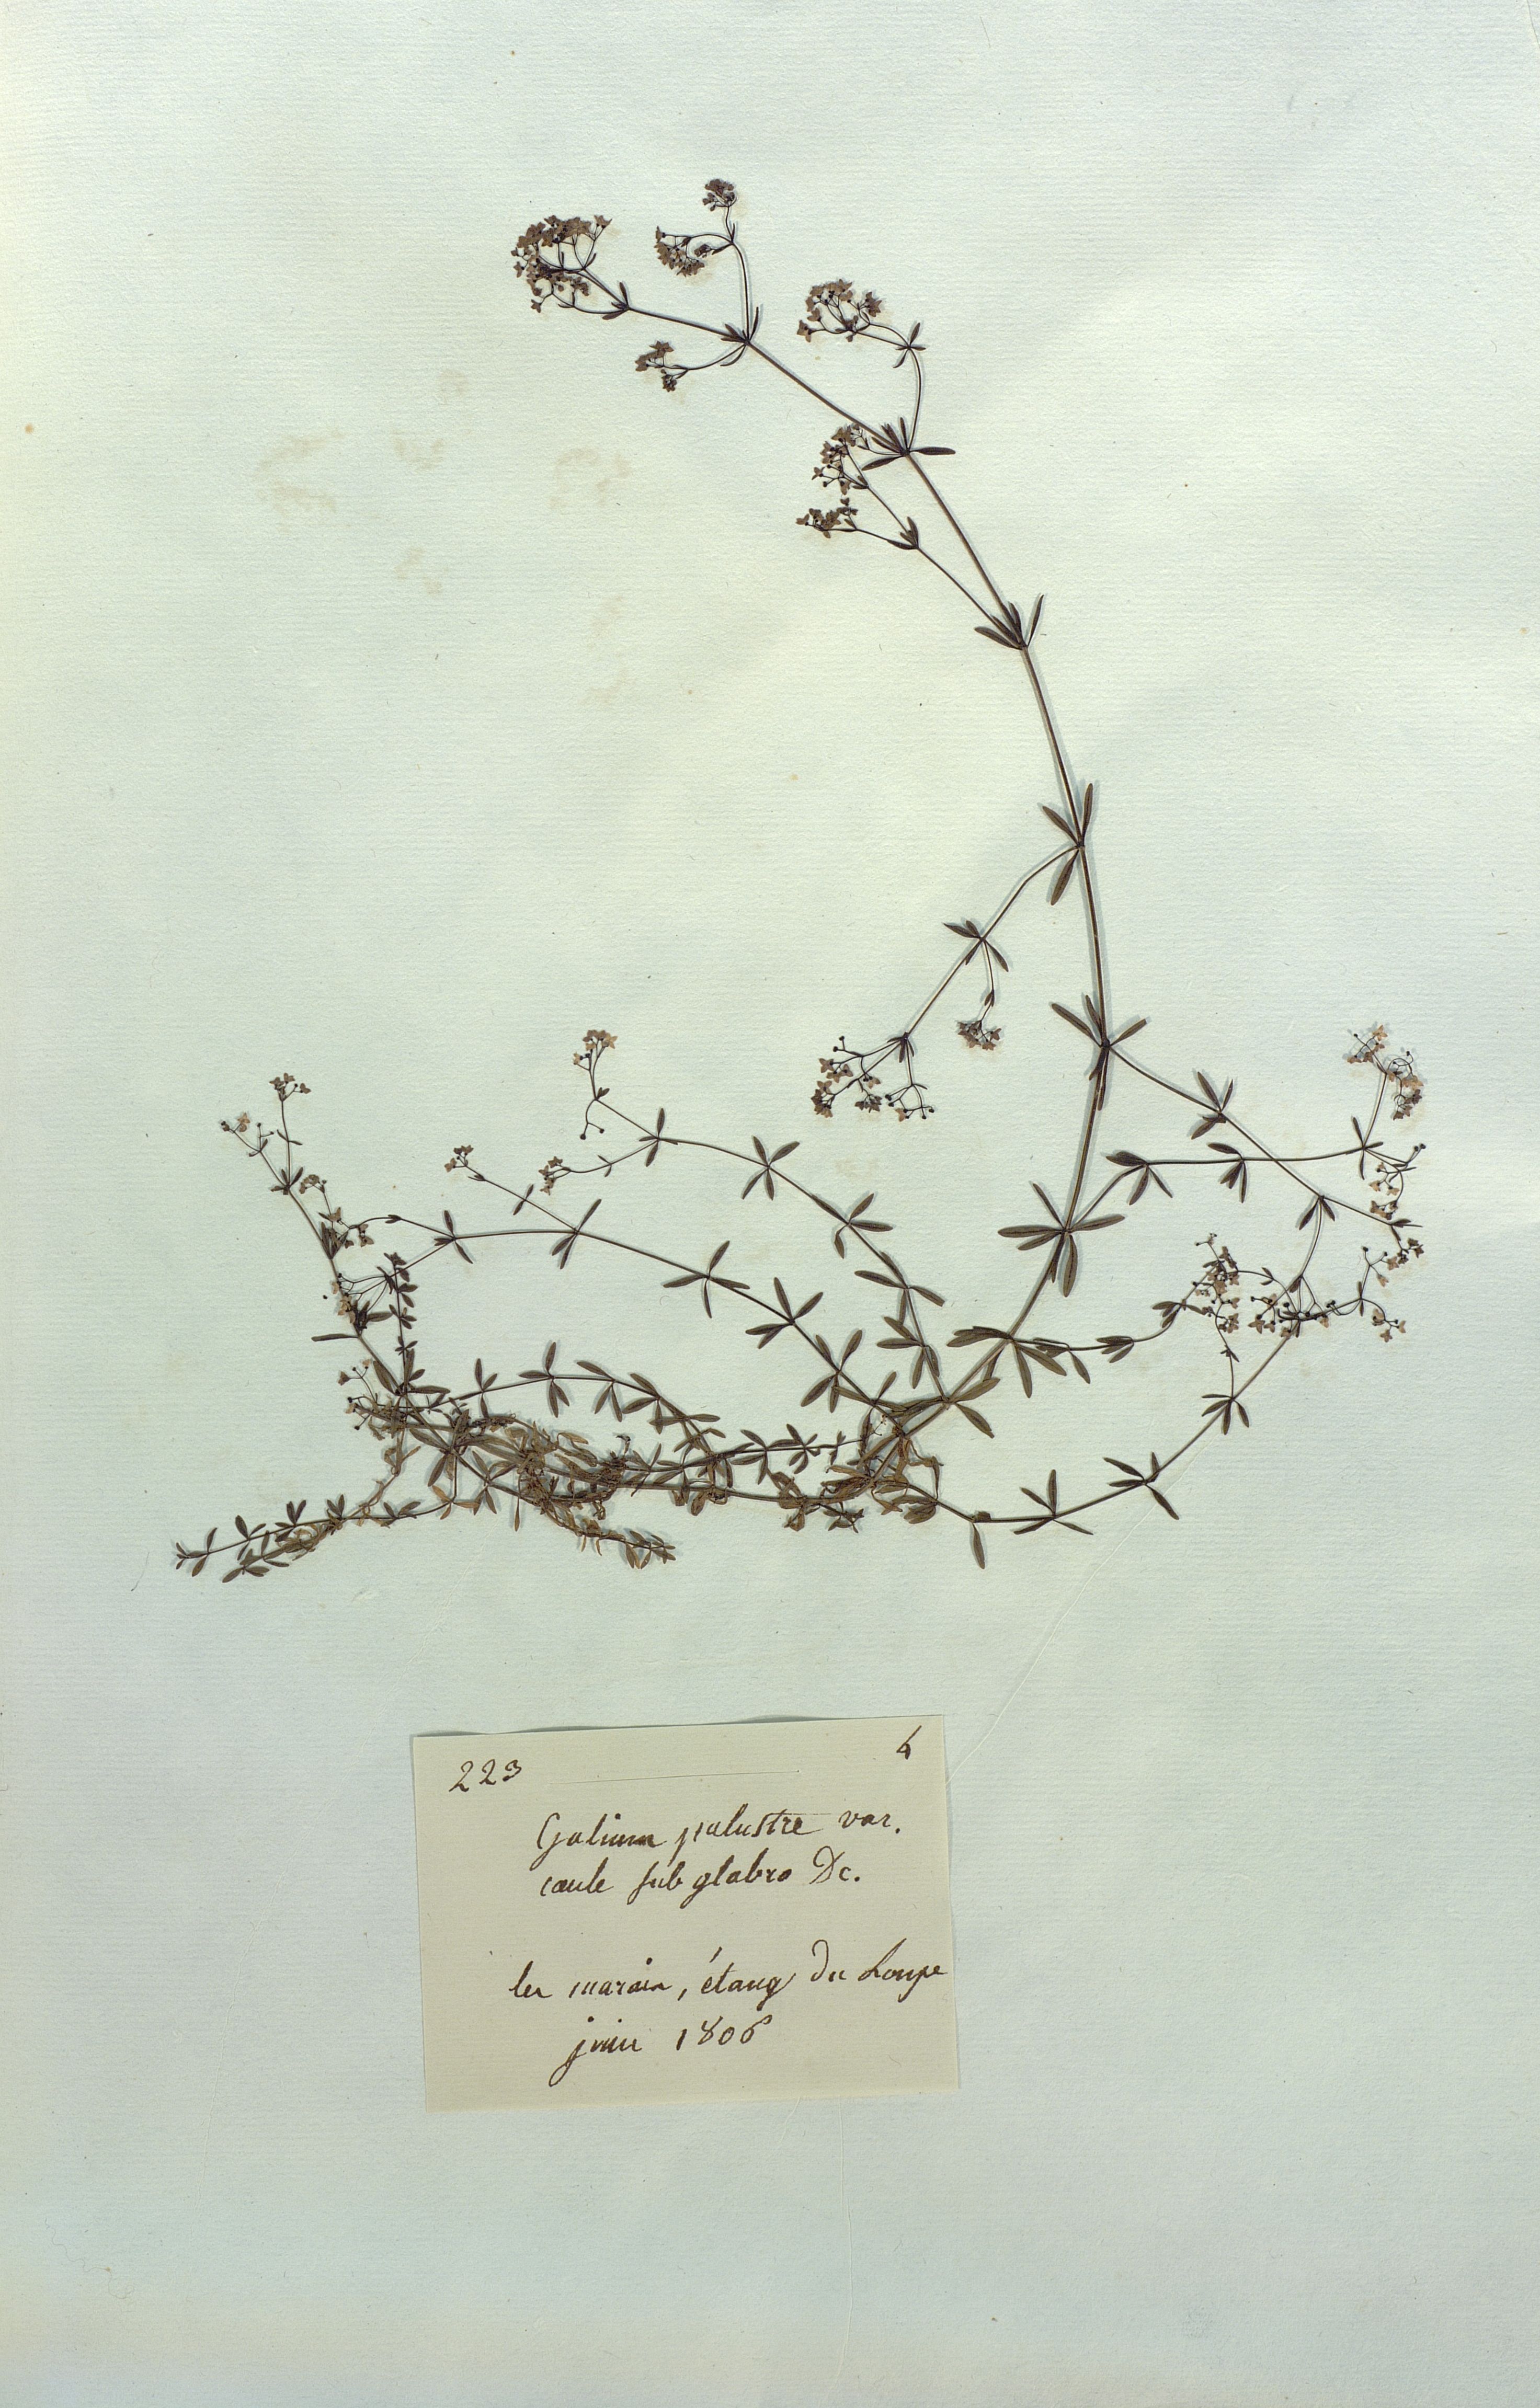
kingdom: Plantae
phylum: Tracheophyta
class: Magnoliopsida
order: Gentianales
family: Rubiaceae
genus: Galium
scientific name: Galium palustre
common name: Common marsh-bedstraw
